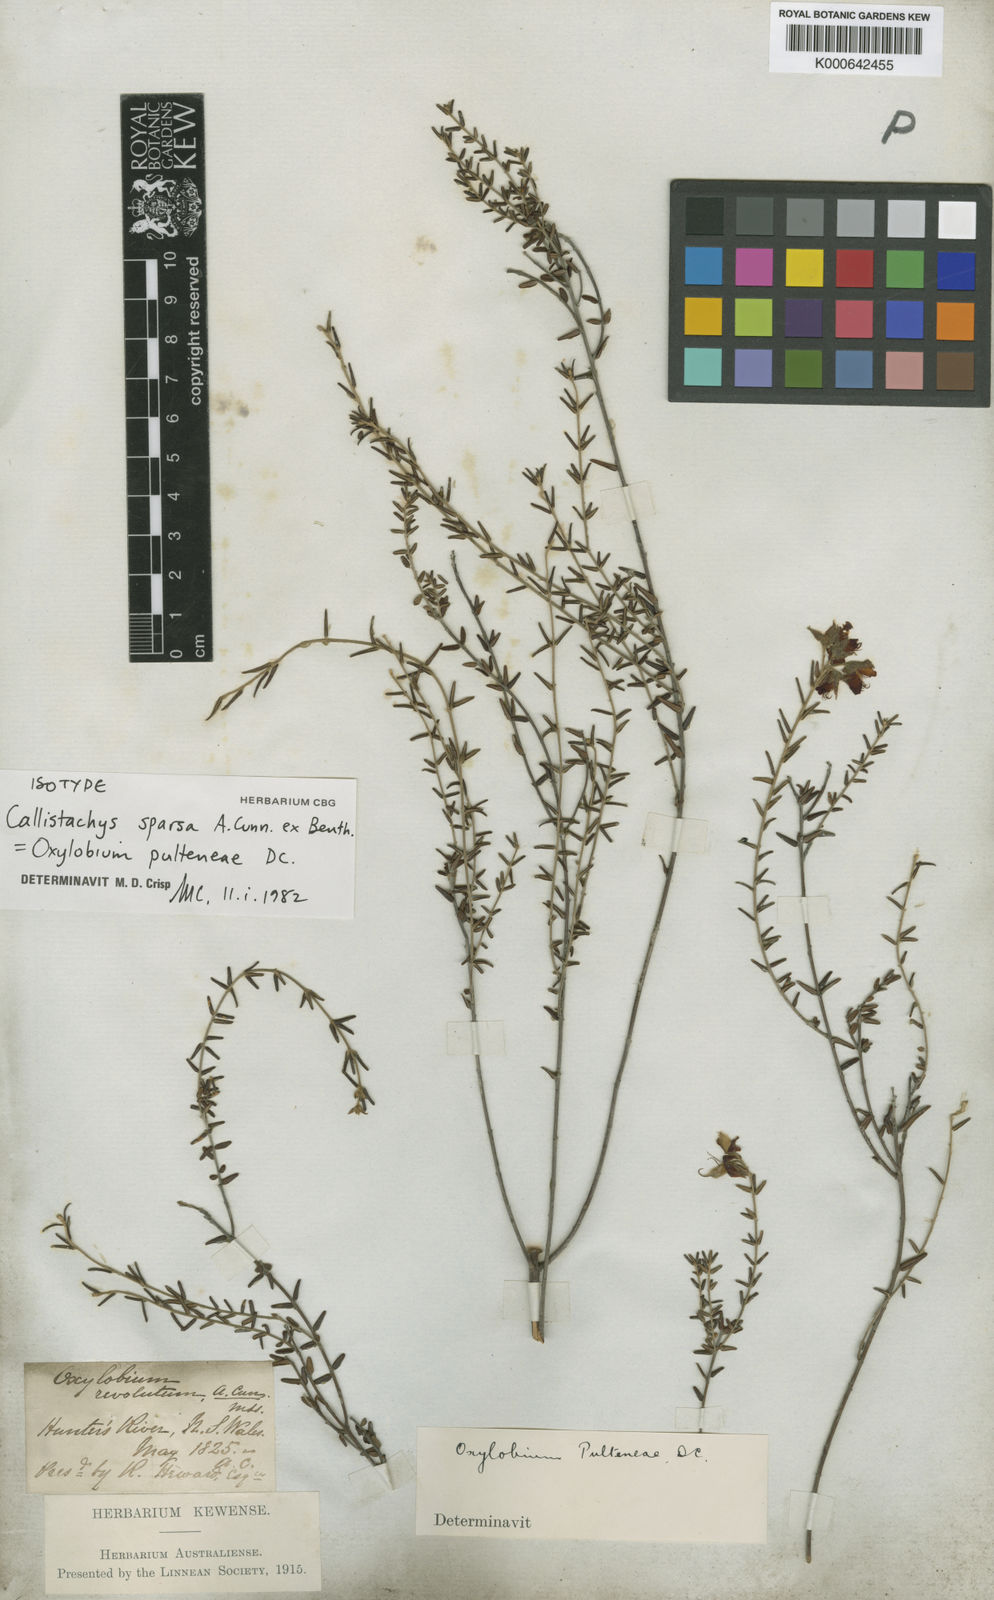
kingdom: Plantae
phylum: Tracheophyta
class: Magnoliopsida
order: Fabales
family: Fabaceae
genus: Oxylobium
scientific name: Oxylobium pulteneae
